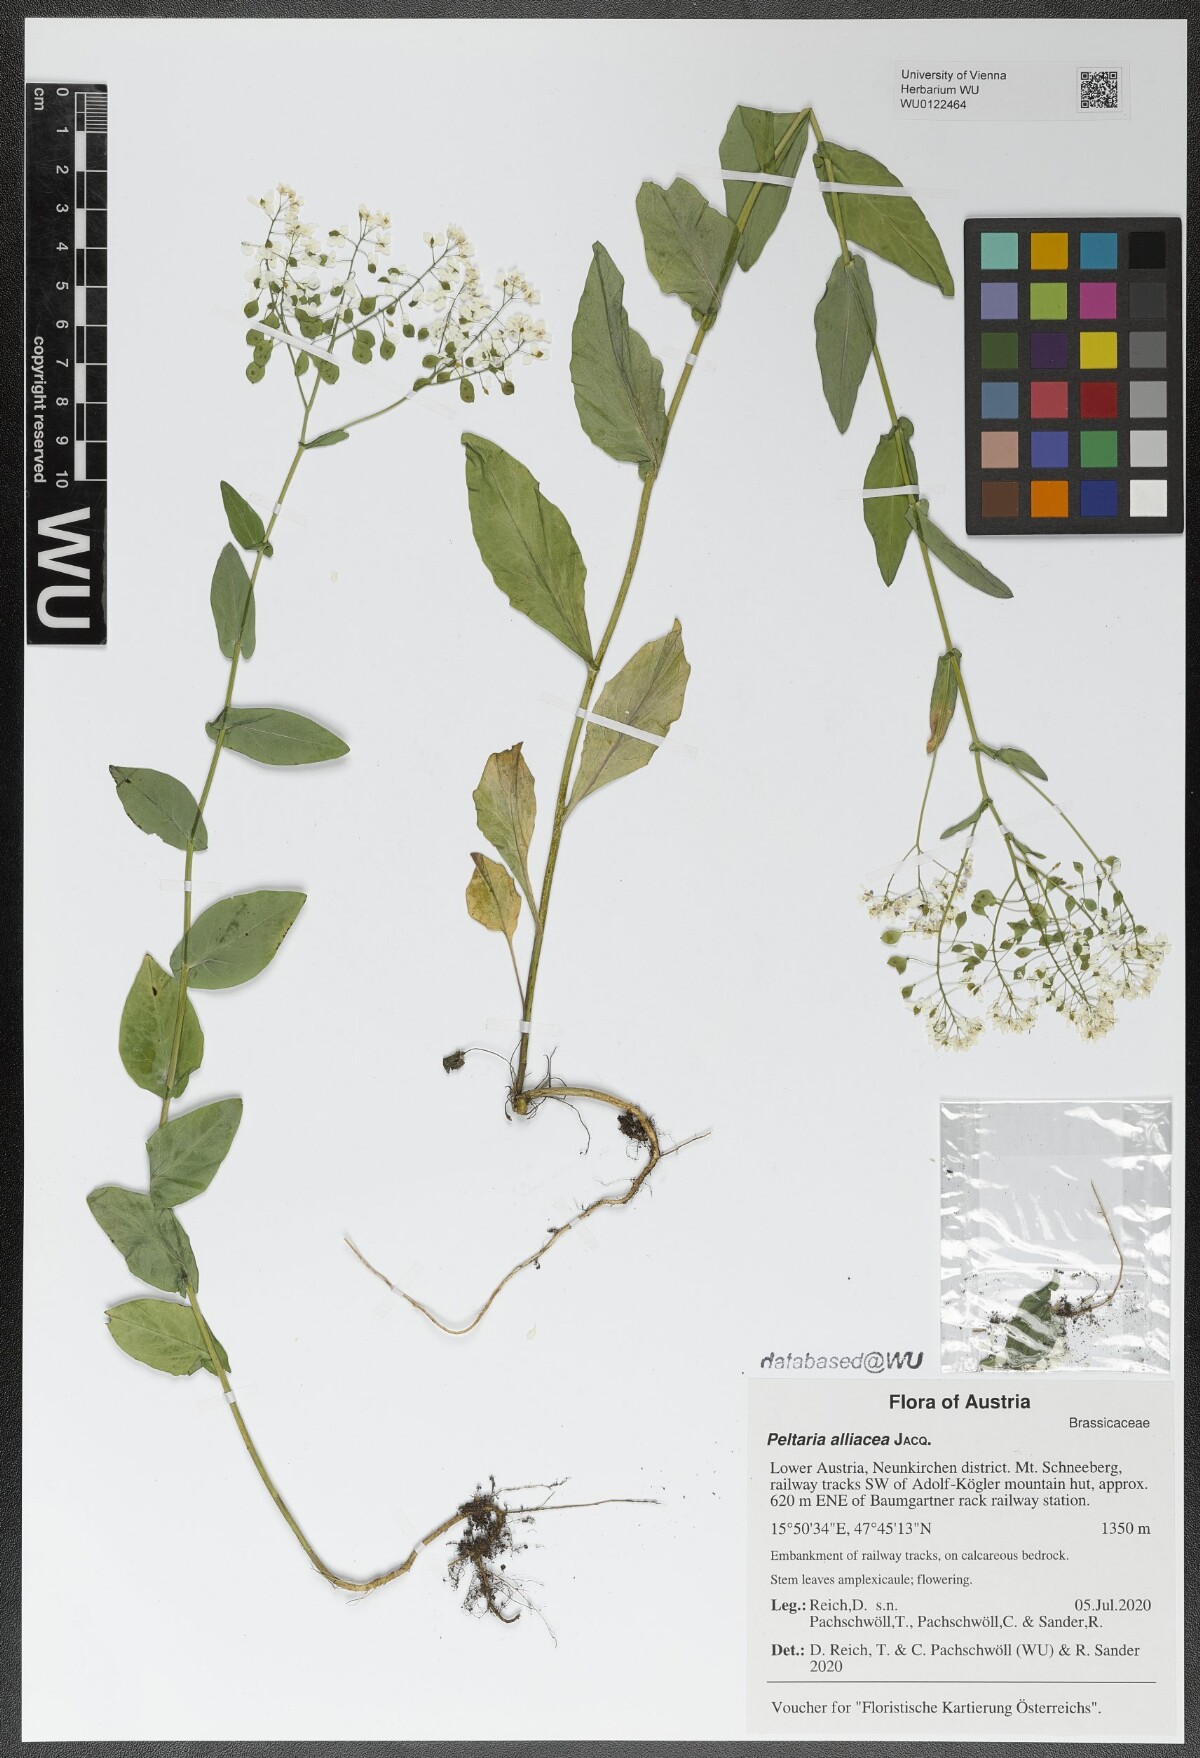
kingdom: Plantae
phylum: Tracheophyta
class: Magnoliopsida
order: Brassicales
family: Brassicaceae
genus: Peltaria
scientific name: Peltaria alliacea
